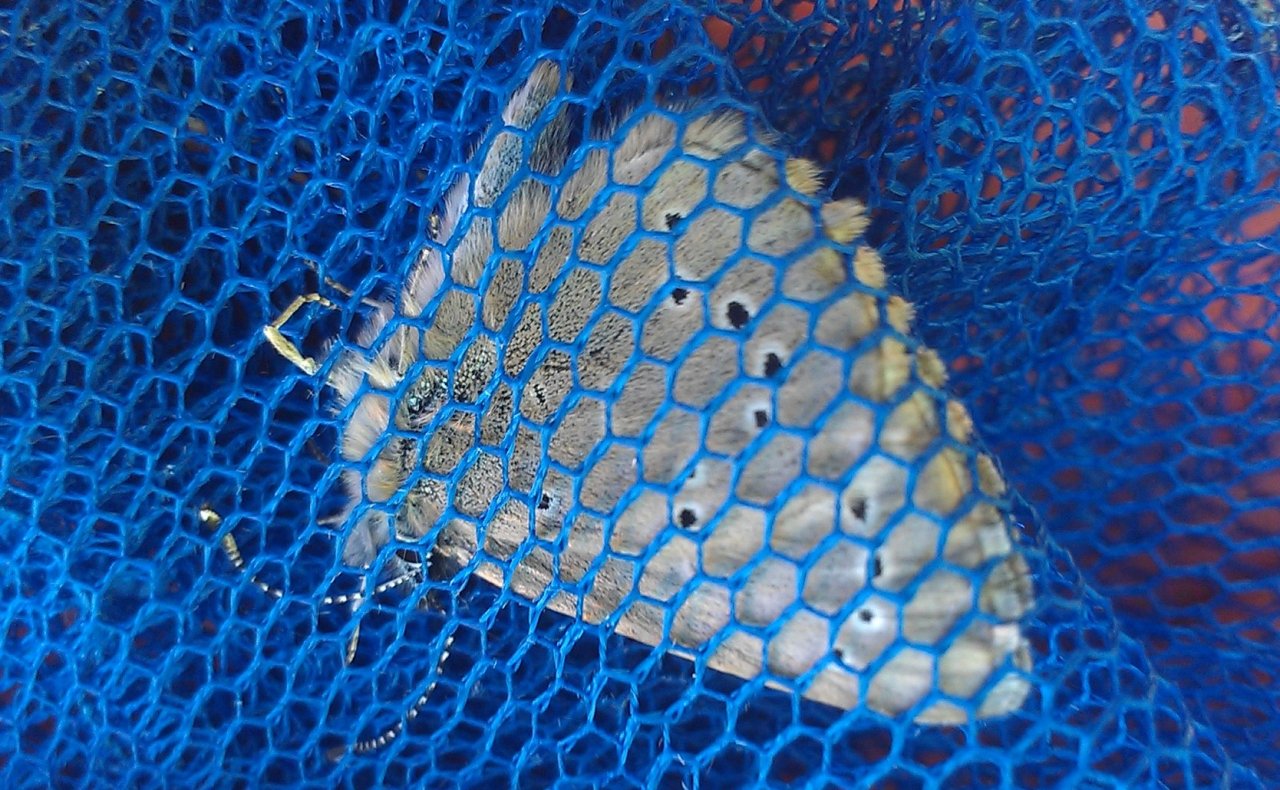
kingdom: Animalia
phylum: Arthropoda
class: Insecta
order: Lepidoptera
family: Lycaenidae
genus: Glaucopsyche
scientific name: Glaucopsyche lygdamus
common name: Silvery Blue
